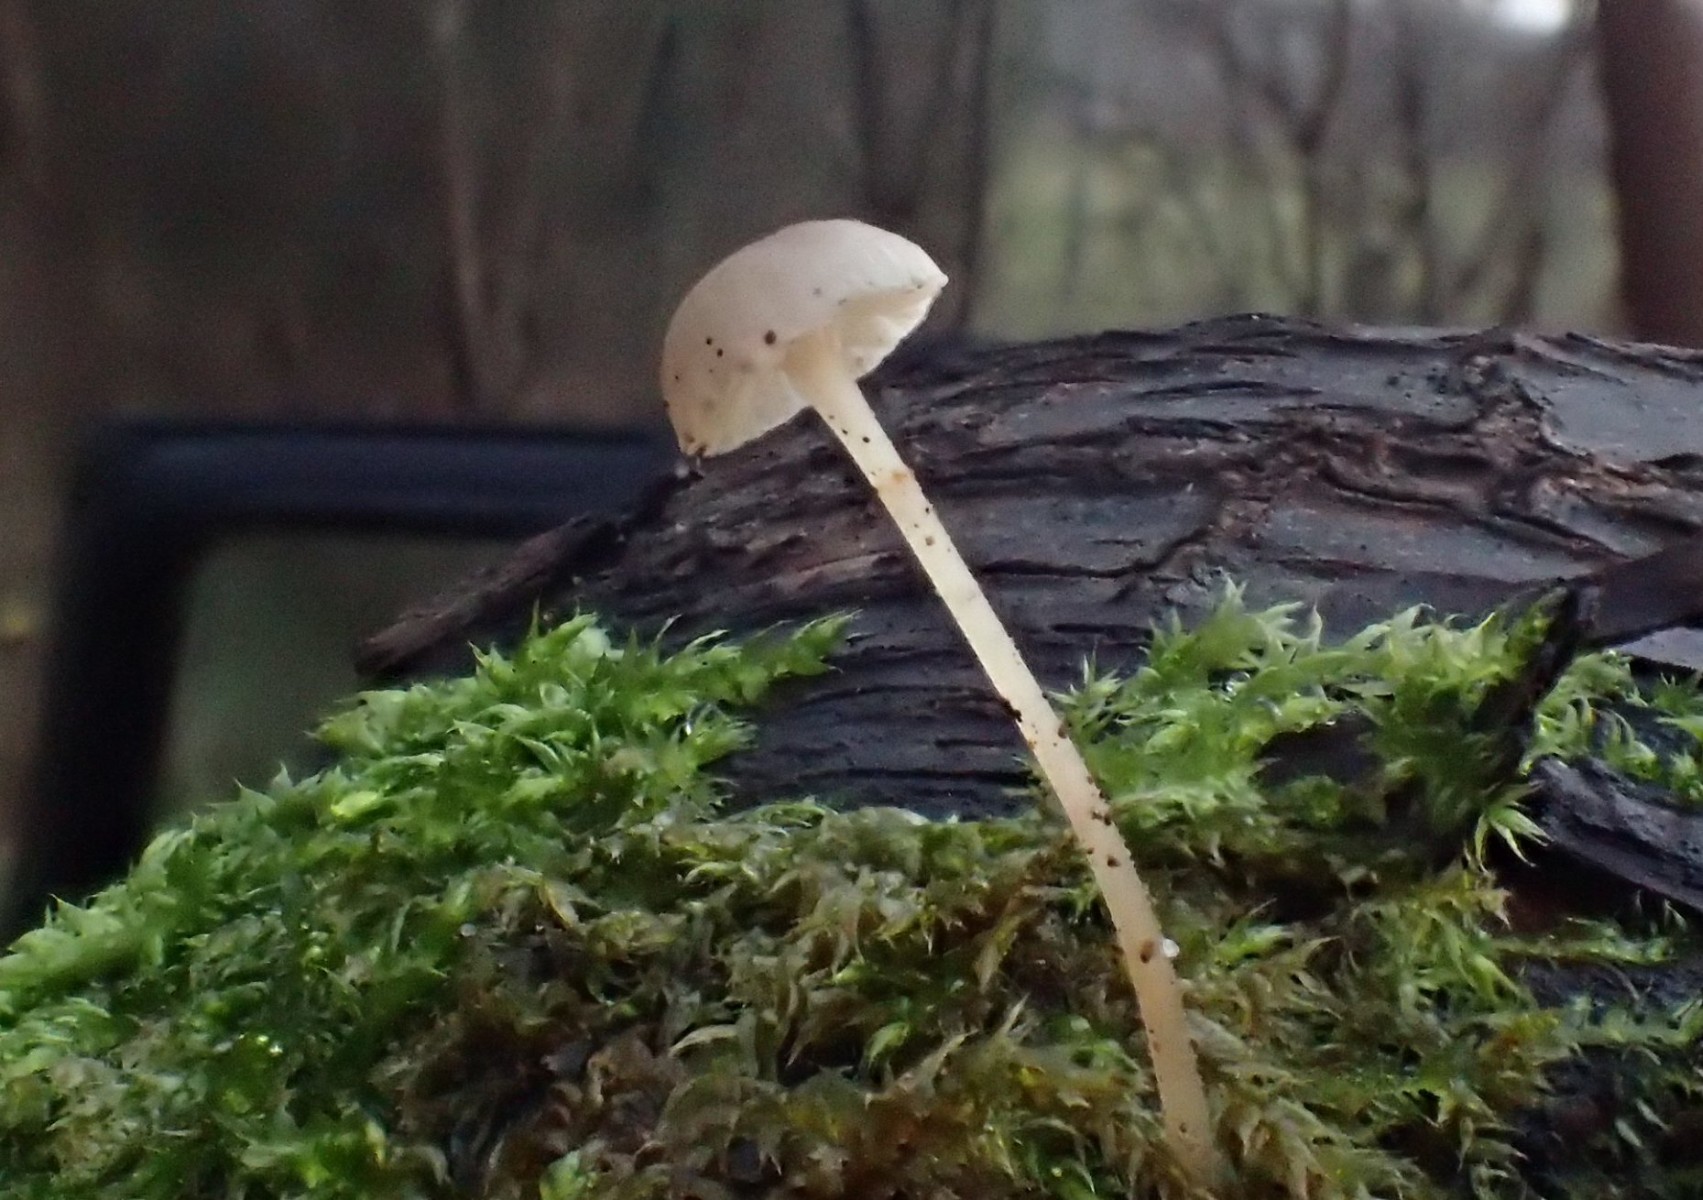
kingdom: Fungi
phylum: Basidiomycota
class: Agaricomycetes
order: Agaricales
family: Porotheleaceae
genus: Phloeomana
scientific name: Phloeomana speirea
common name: kvist-huesvamp
